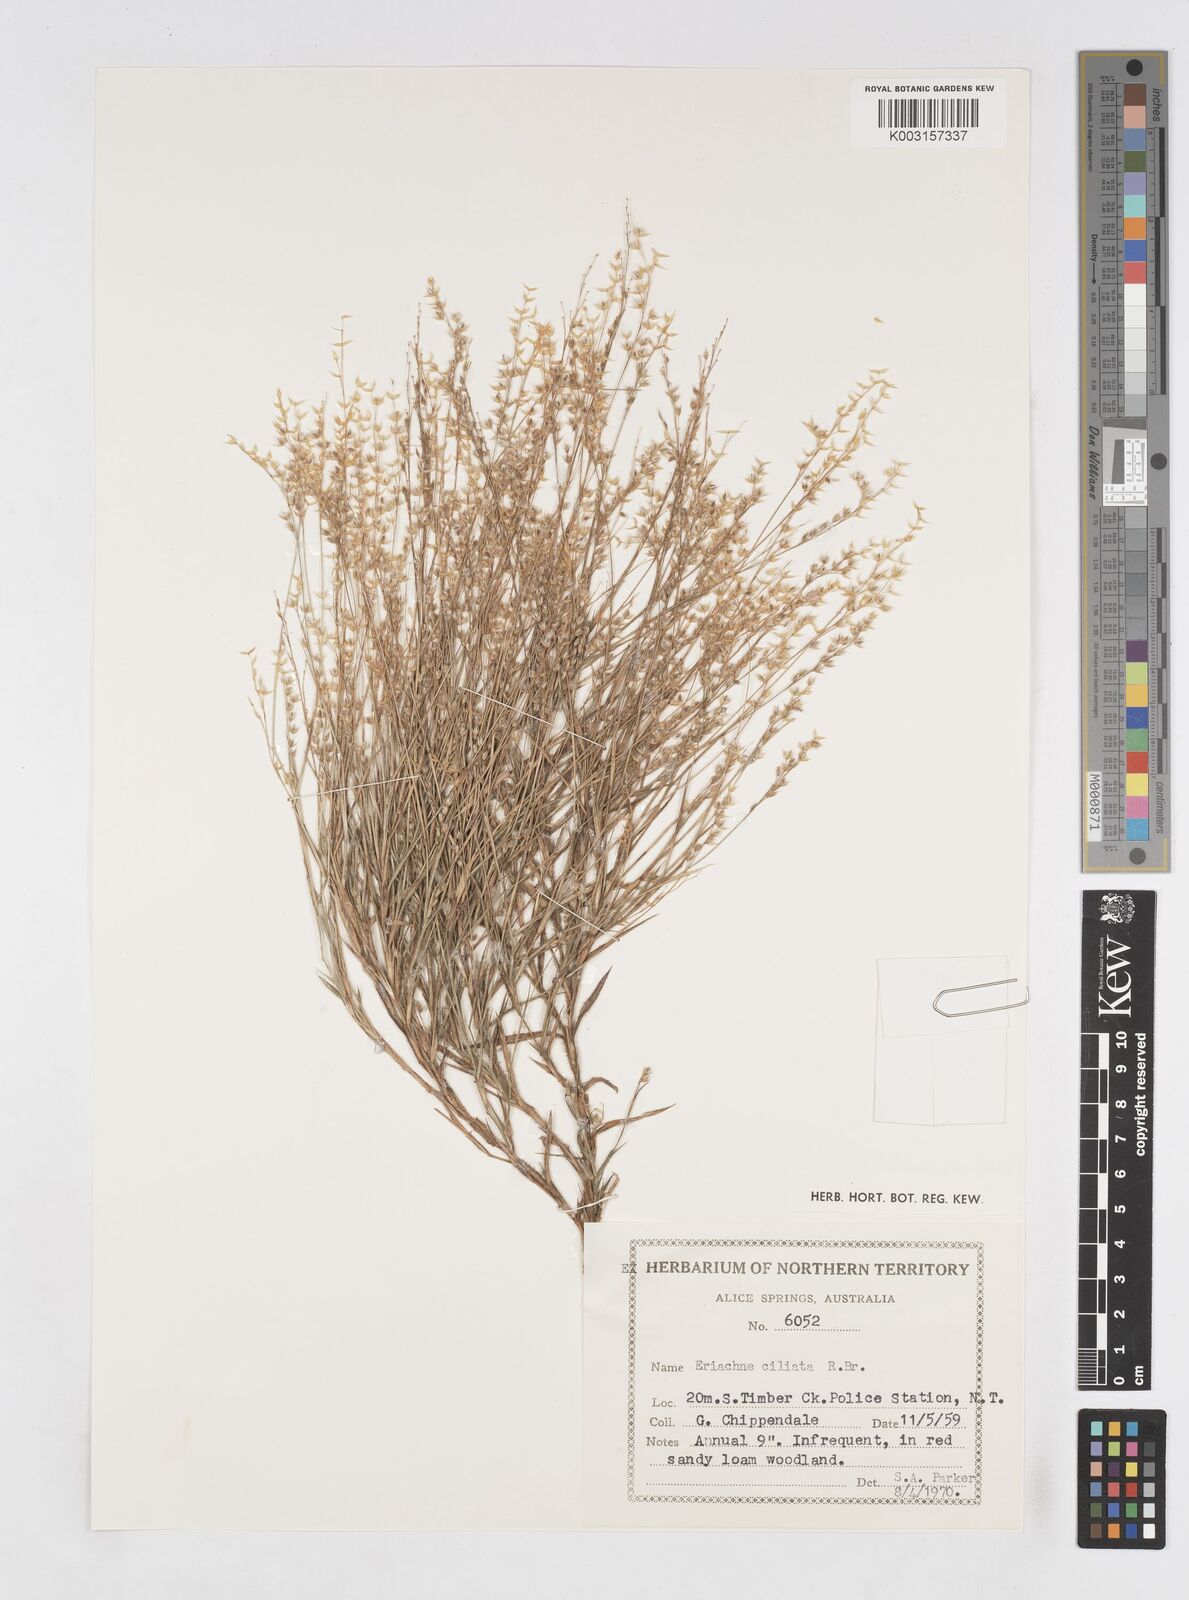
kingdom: Plantae
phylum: Tracheophyta
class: Liliopsida
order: Poales
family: Poaceae
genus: Eriachne
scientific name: Eriachne ciliata
